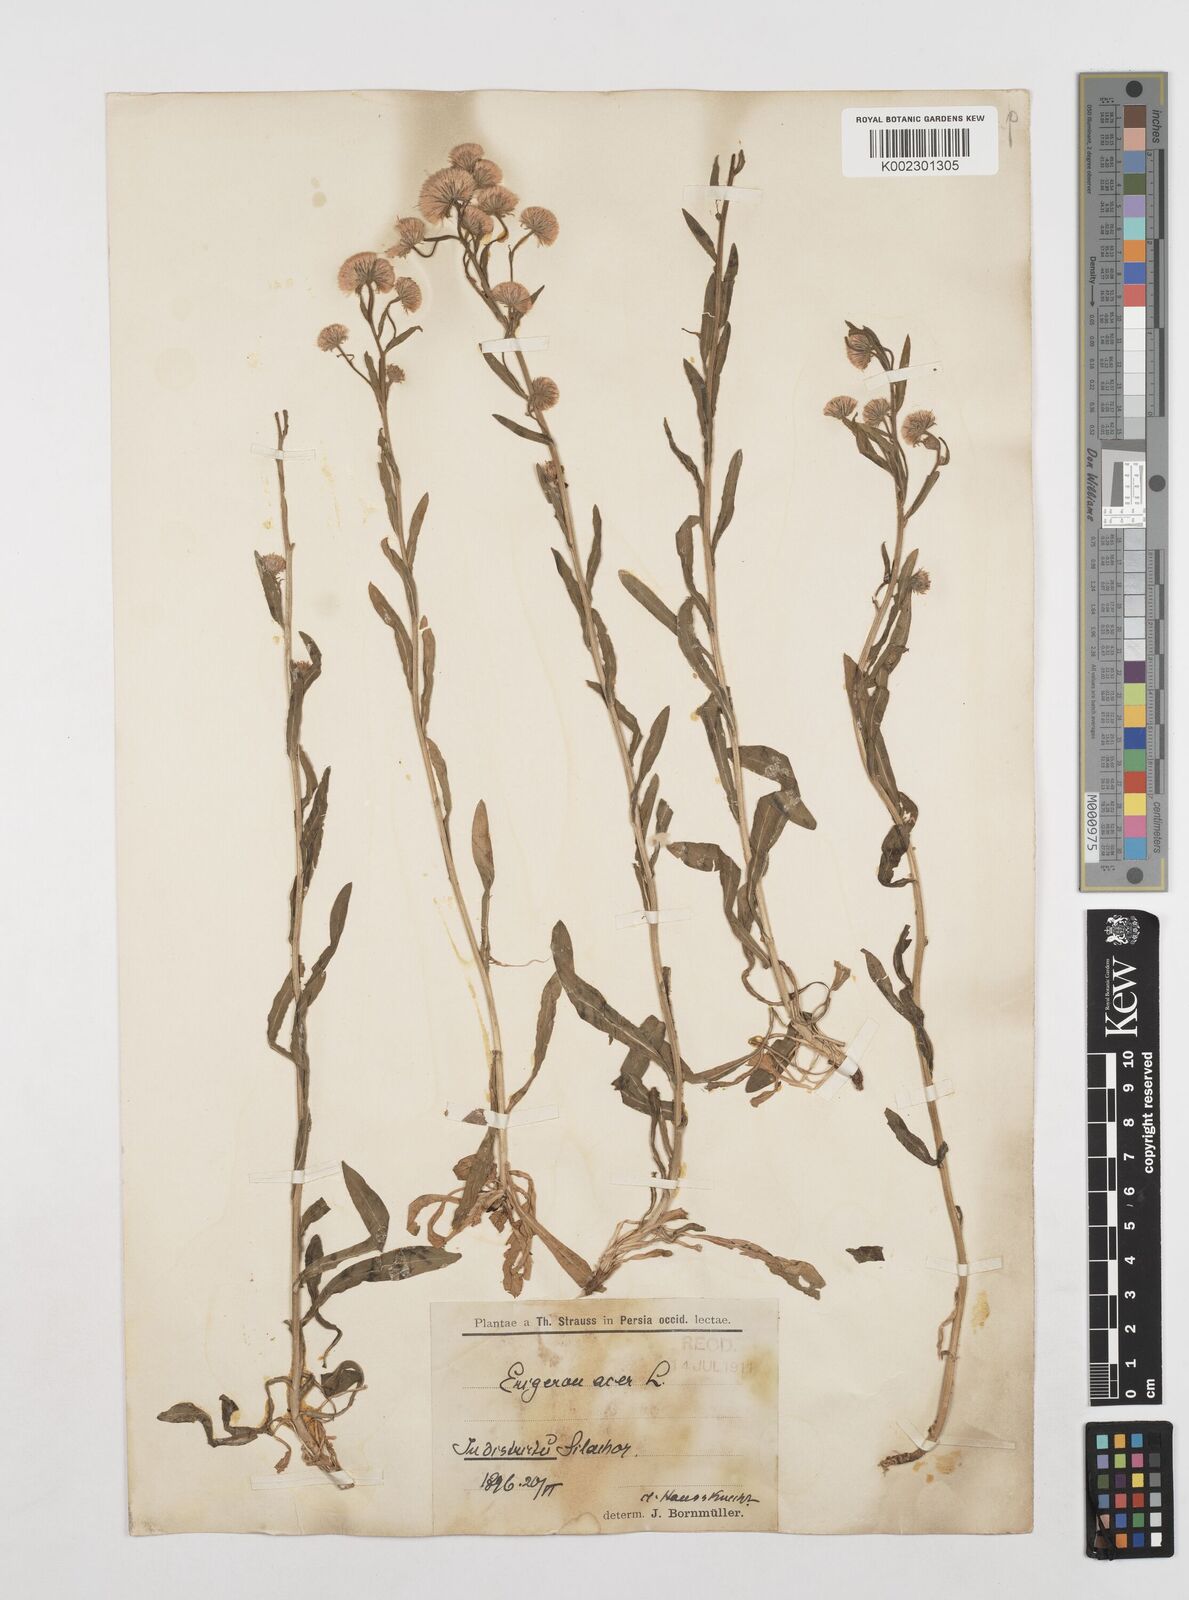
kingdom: Plantae
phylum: Tracheophyta
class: Magnoliopsida
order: Asterales
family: Asteraceae
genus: Erigeron
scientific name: Erigeron acris
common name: Blue fleabane
